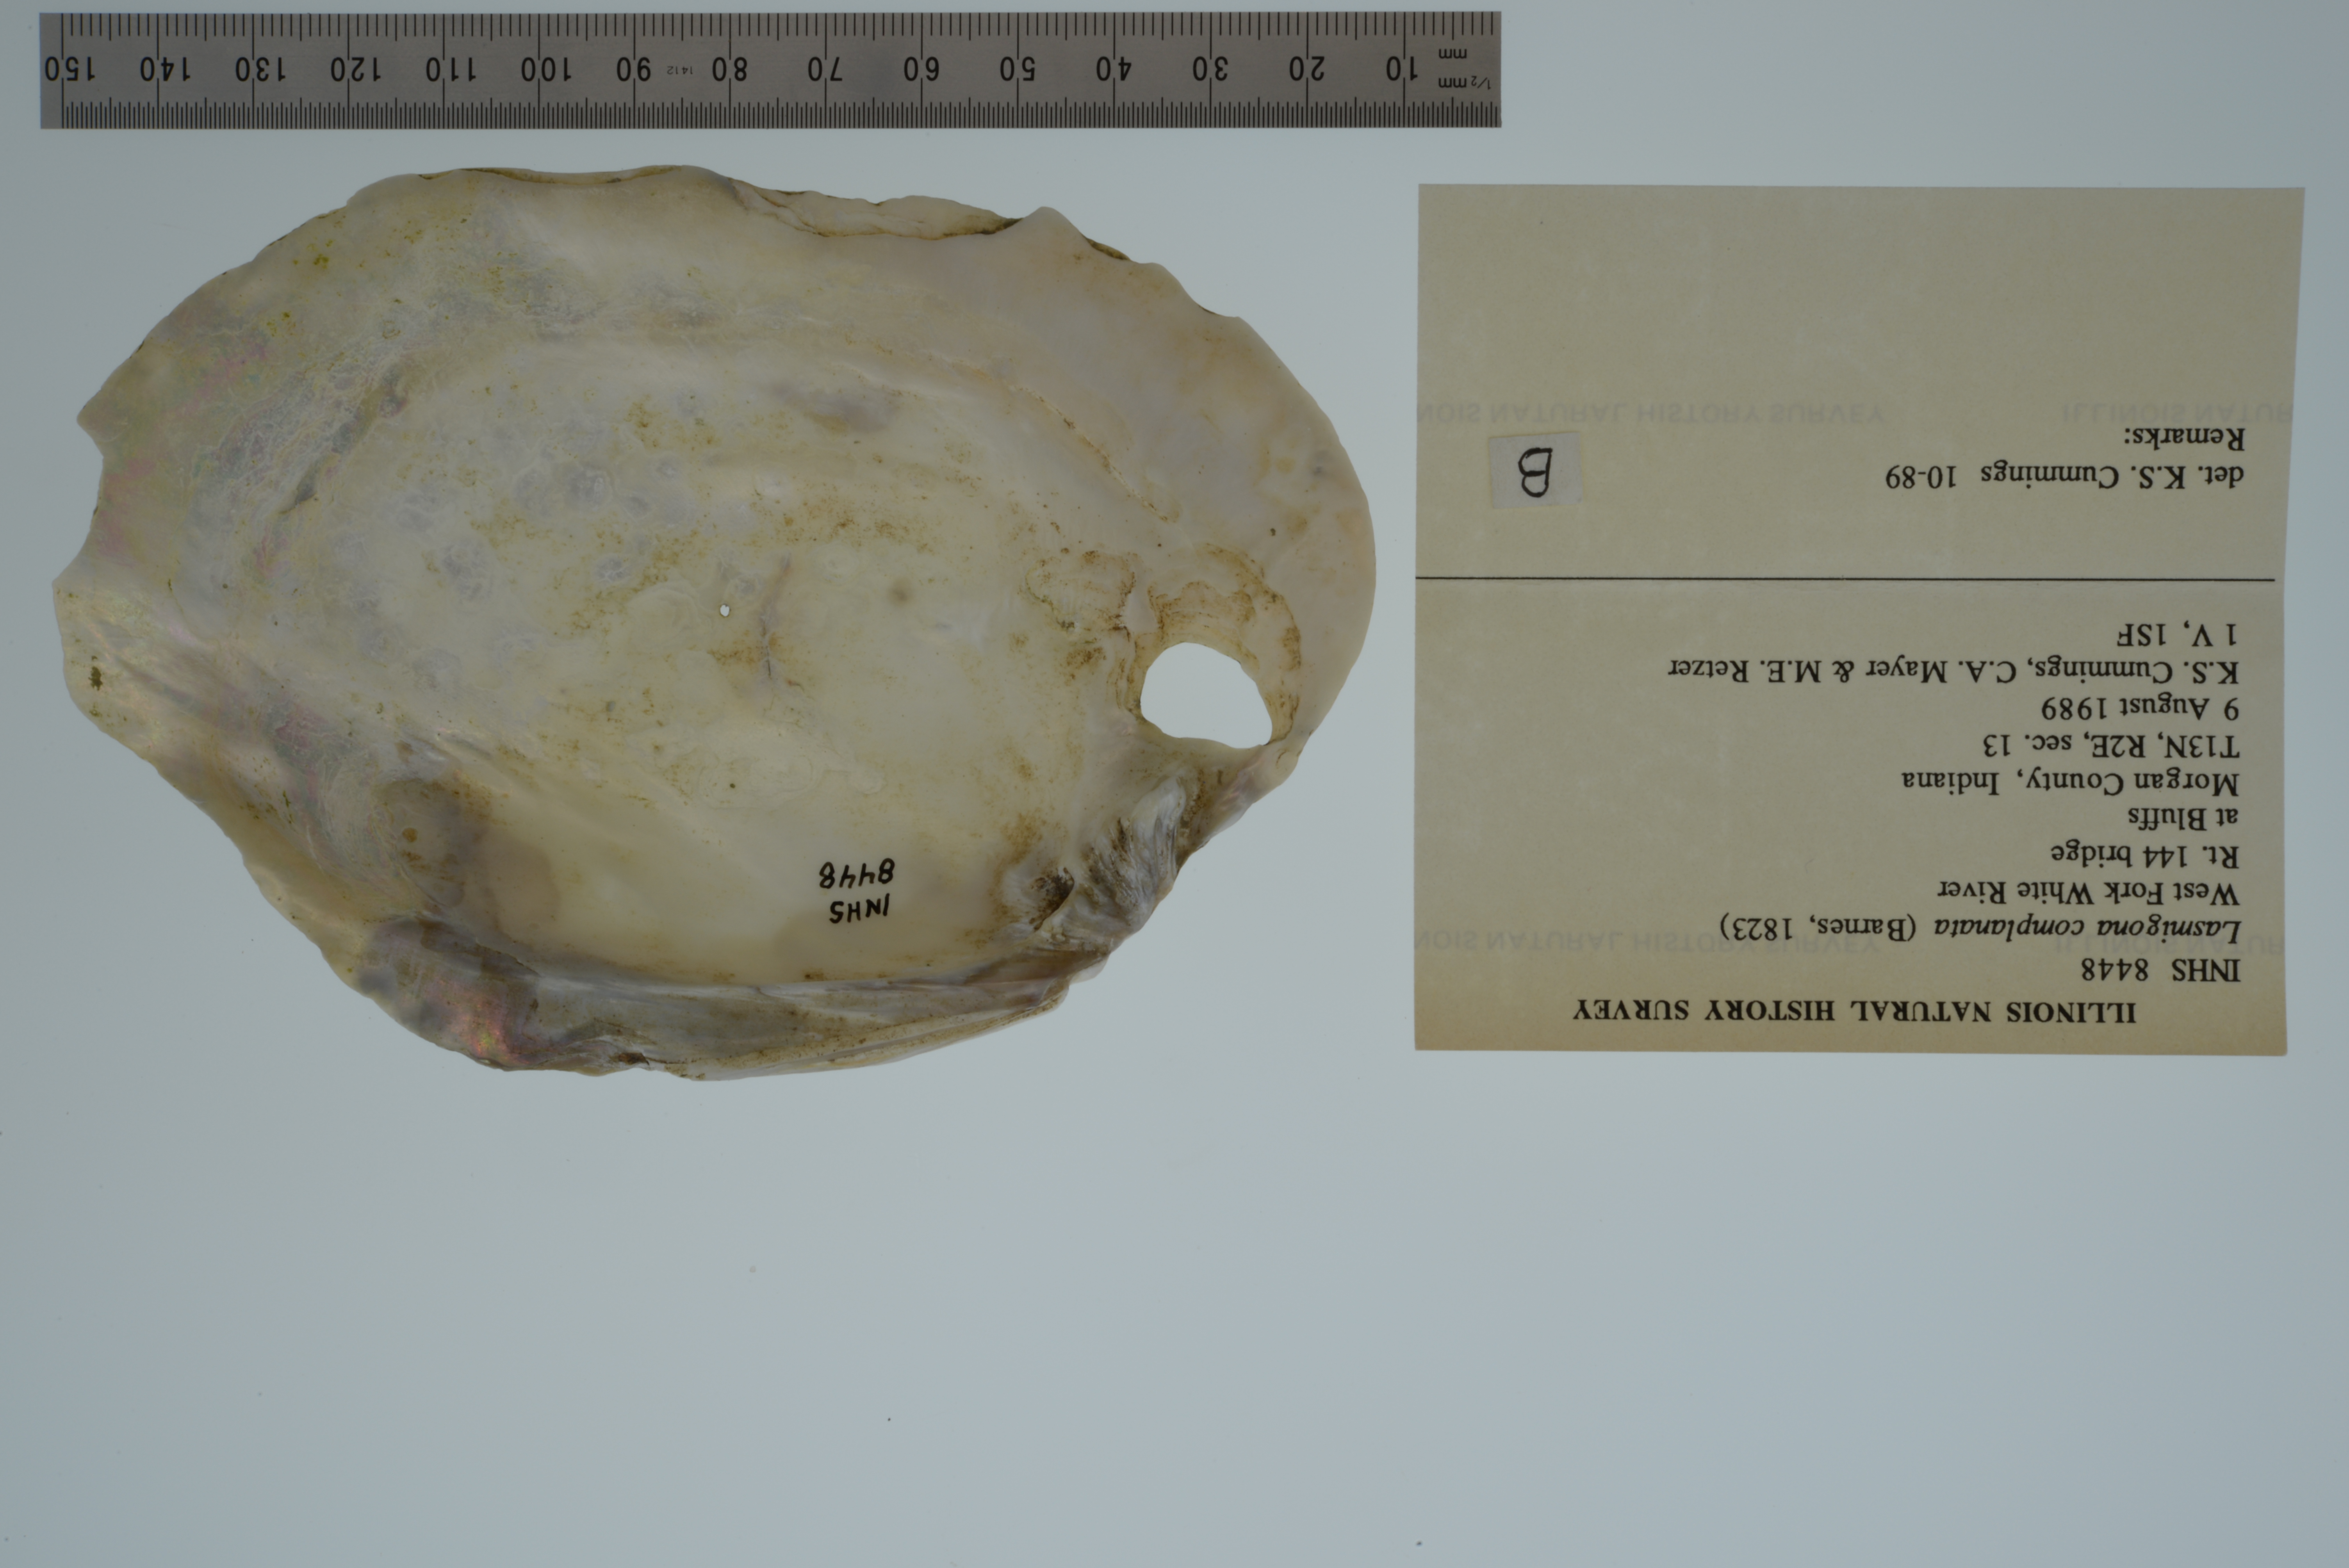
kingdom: Animalia
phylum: Mollusca
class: Bivalvia
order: Unionida
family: Unionidae
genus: Lasmigona
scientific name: Lasmigona complanata
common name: White heelsplitter
